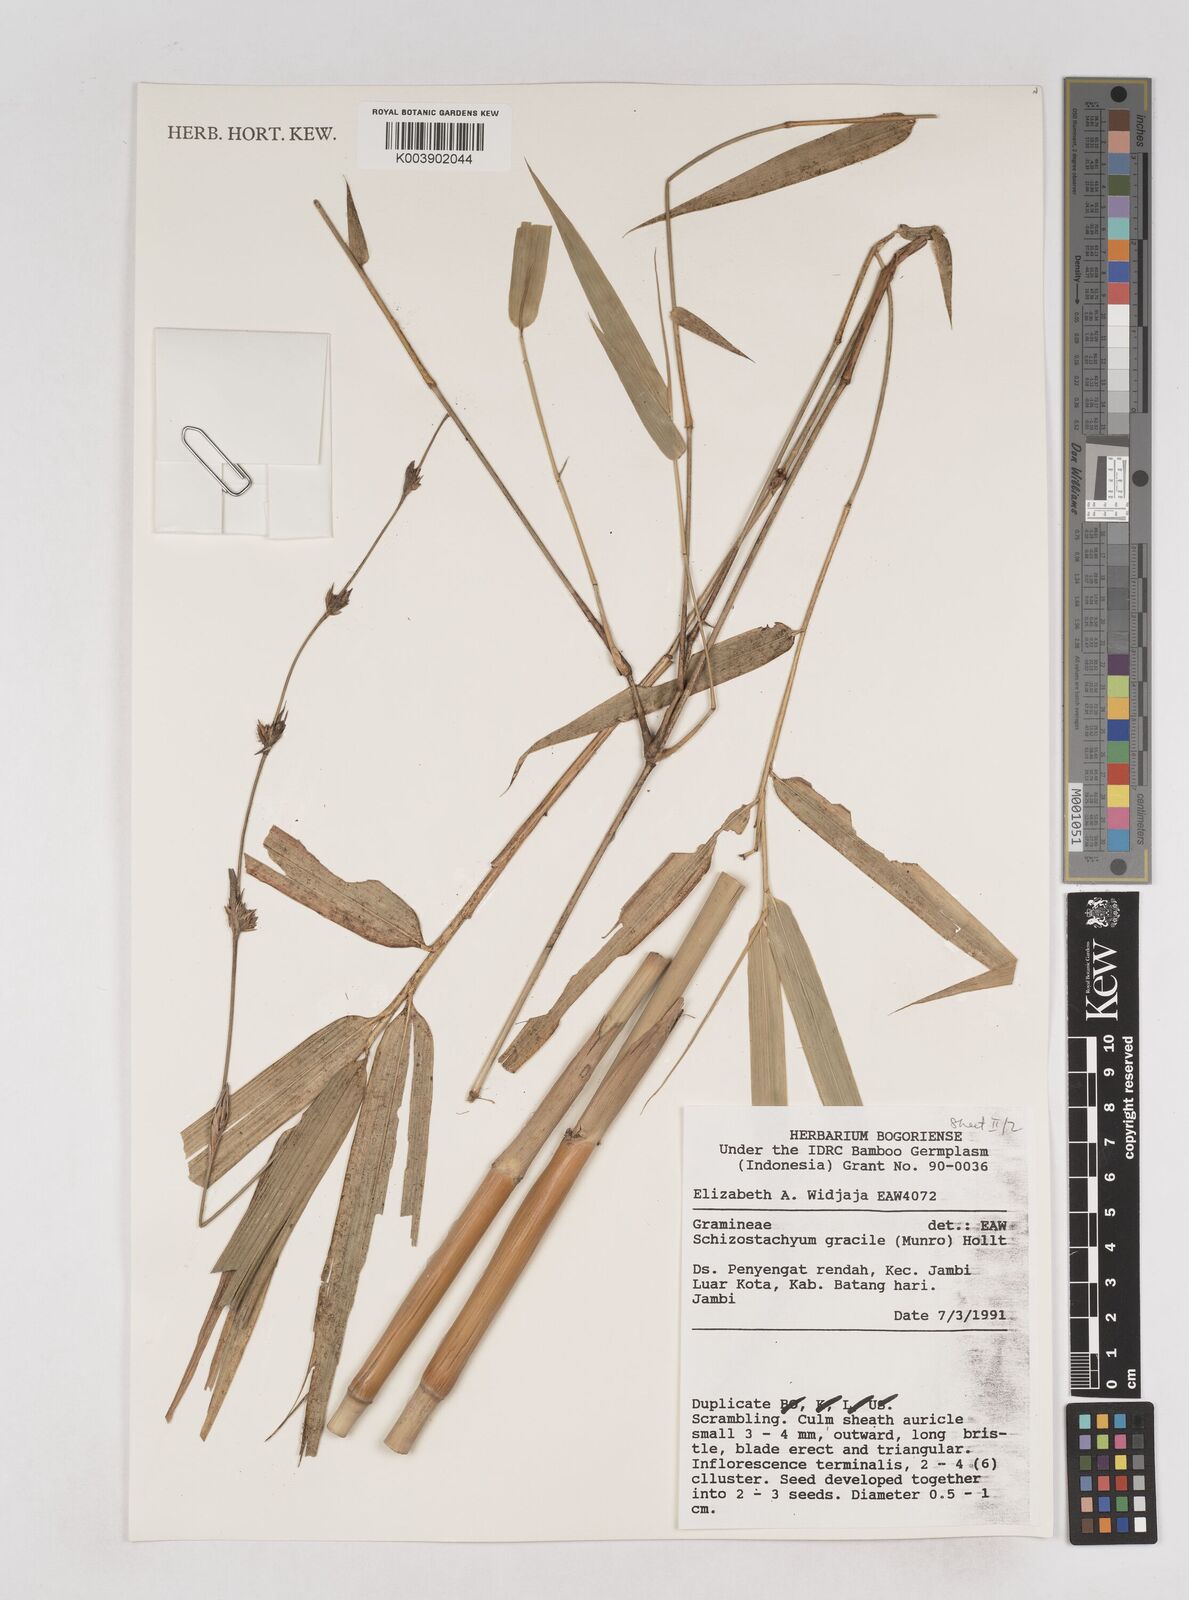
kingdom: Plantae
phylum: Tracheophyta
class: Liliopsida
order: Poales
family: Poaceae
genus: Schizostachyum
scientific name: Schizostachyum gracile
